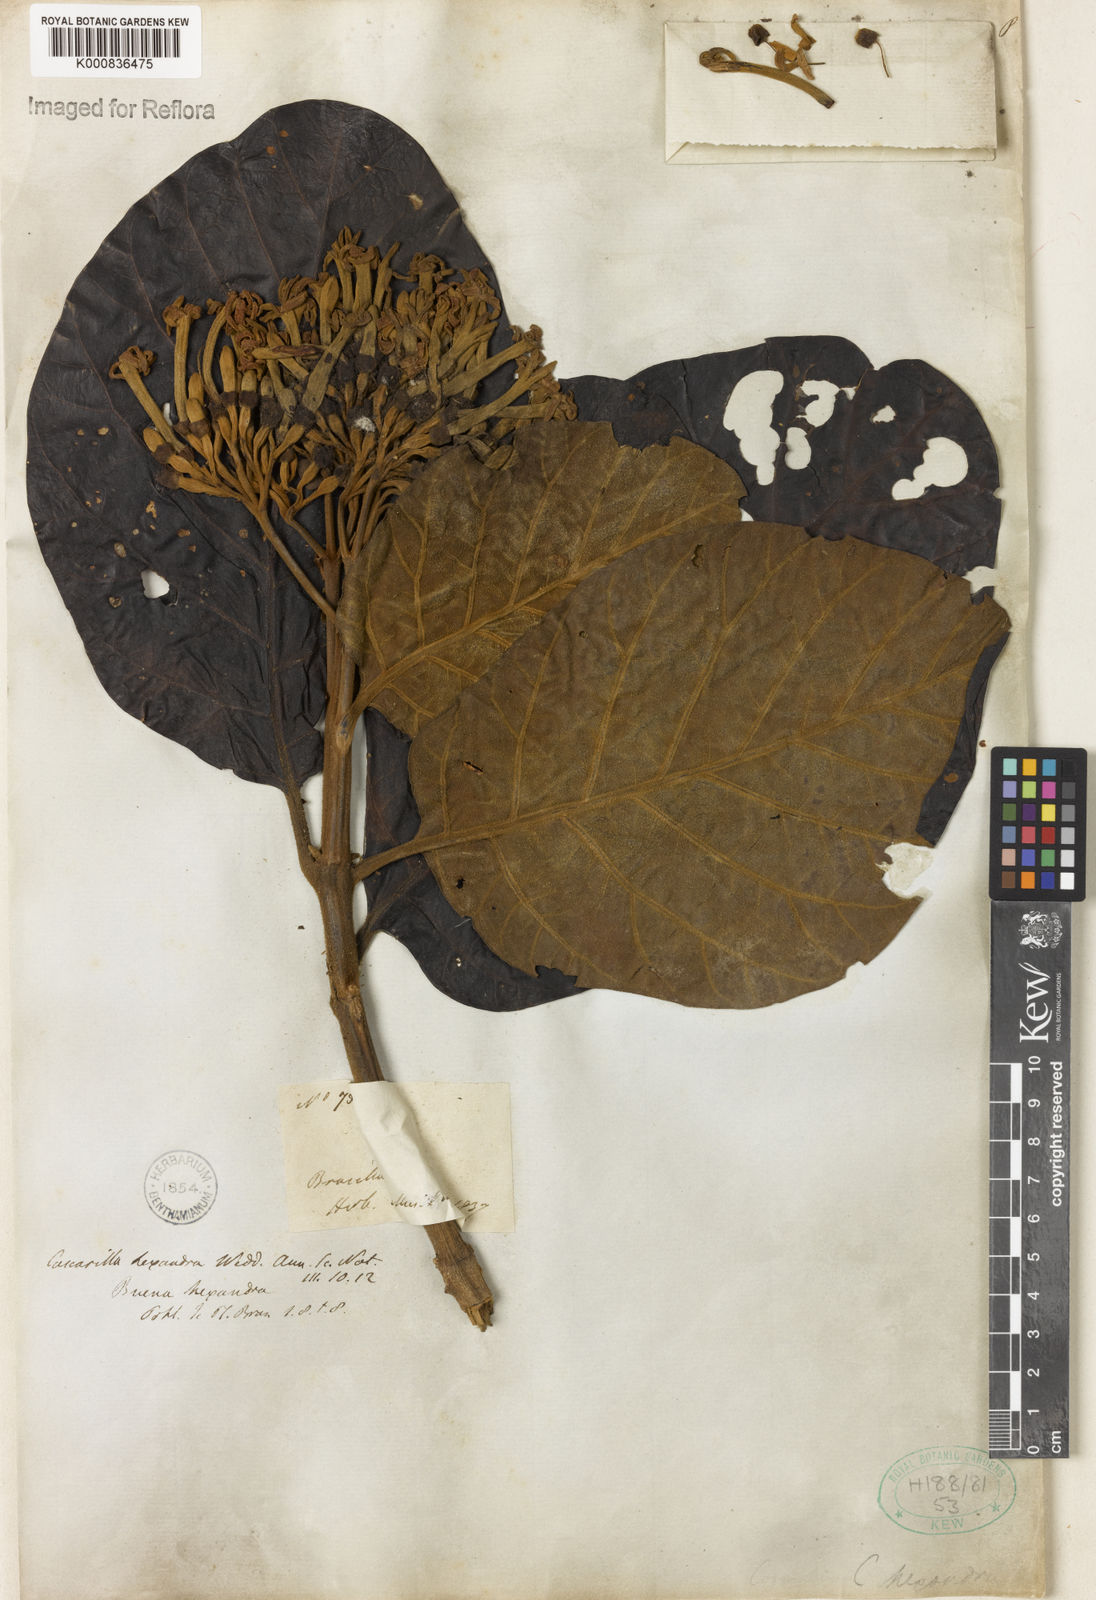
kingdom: Plantae
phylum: Tracheophyta
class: Magnoliopsida
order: Gentianales
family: Rubiaceae
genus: Ladenbergia
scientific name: Ladenbergia hexandra
